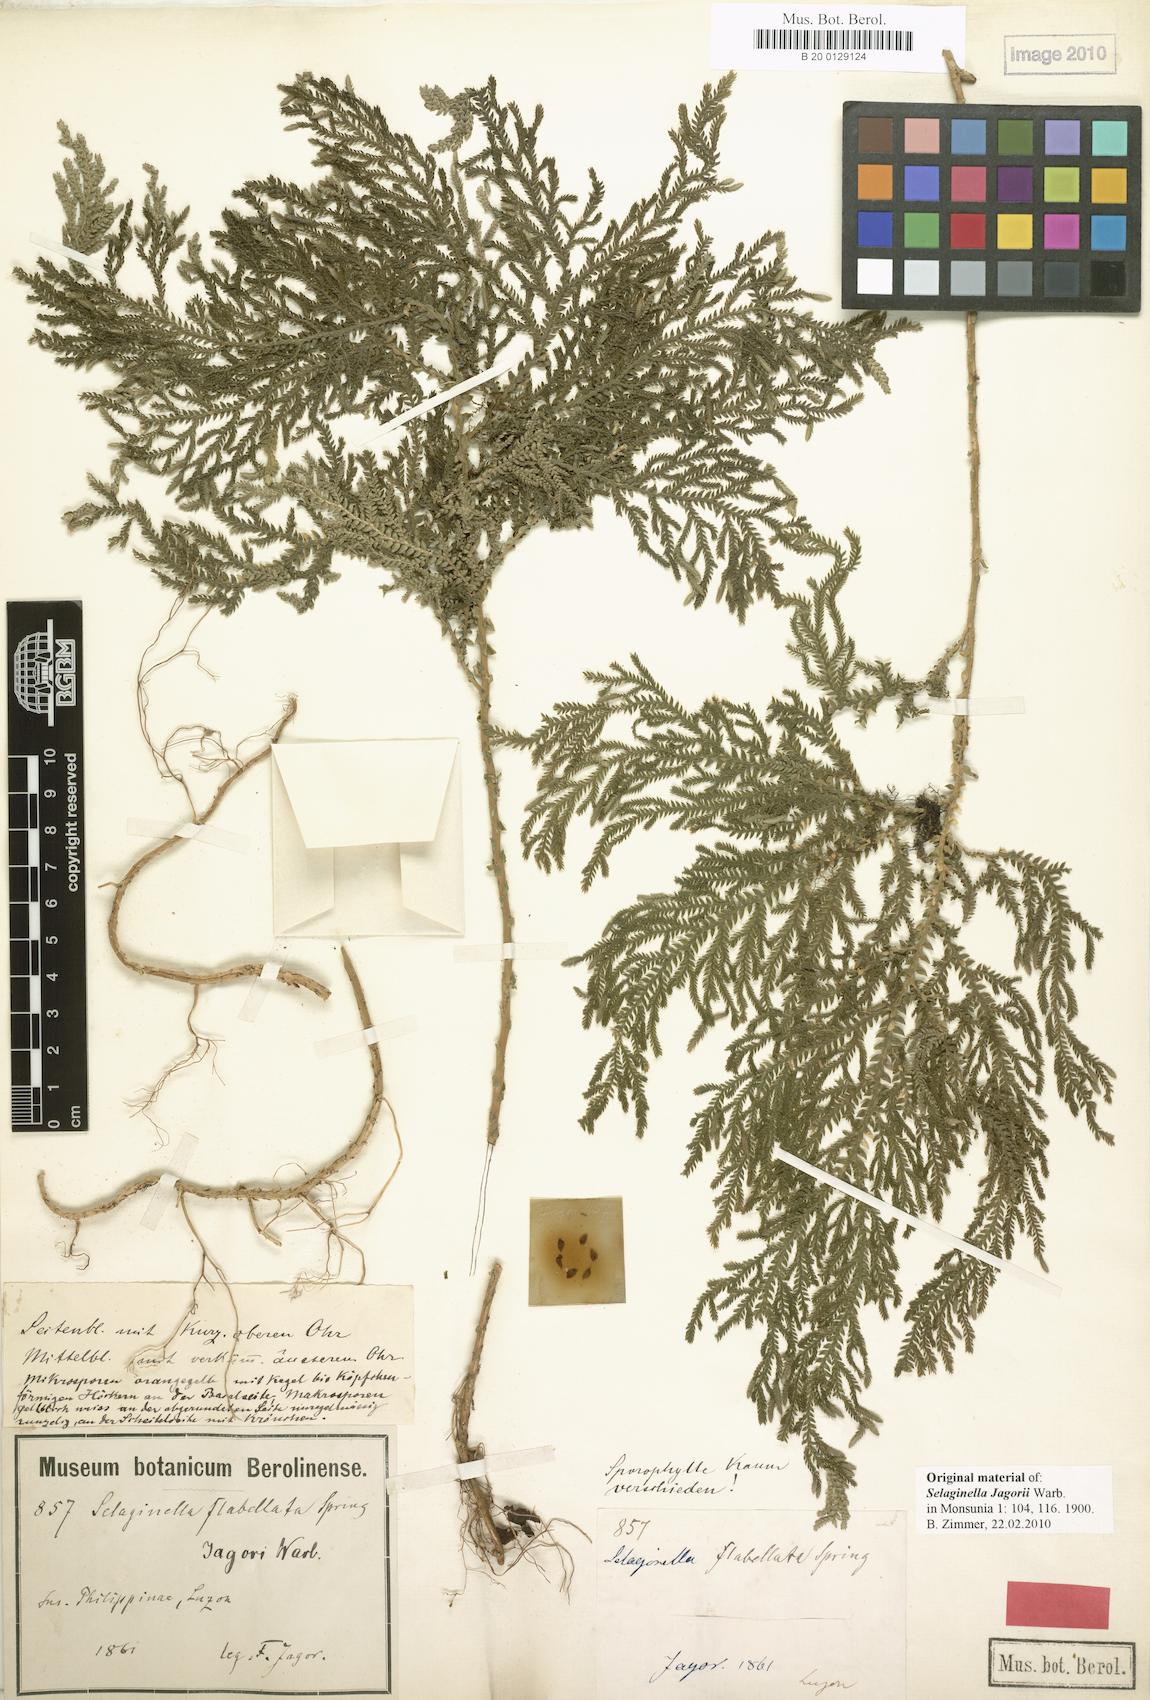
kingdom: Plantae
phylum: Tracheophyta
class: Lycopodiopsida
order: Selaginellales
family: Selaginellaceae
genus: Selaginella
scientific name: Selaginella jagorii
